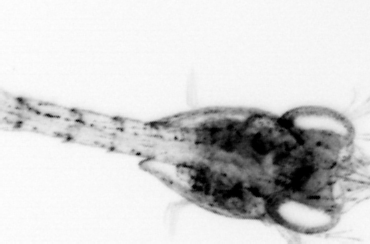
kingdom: Animalia
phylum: Arthropoda
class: Malacostraca
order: Decapoda
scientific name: Decapoda
